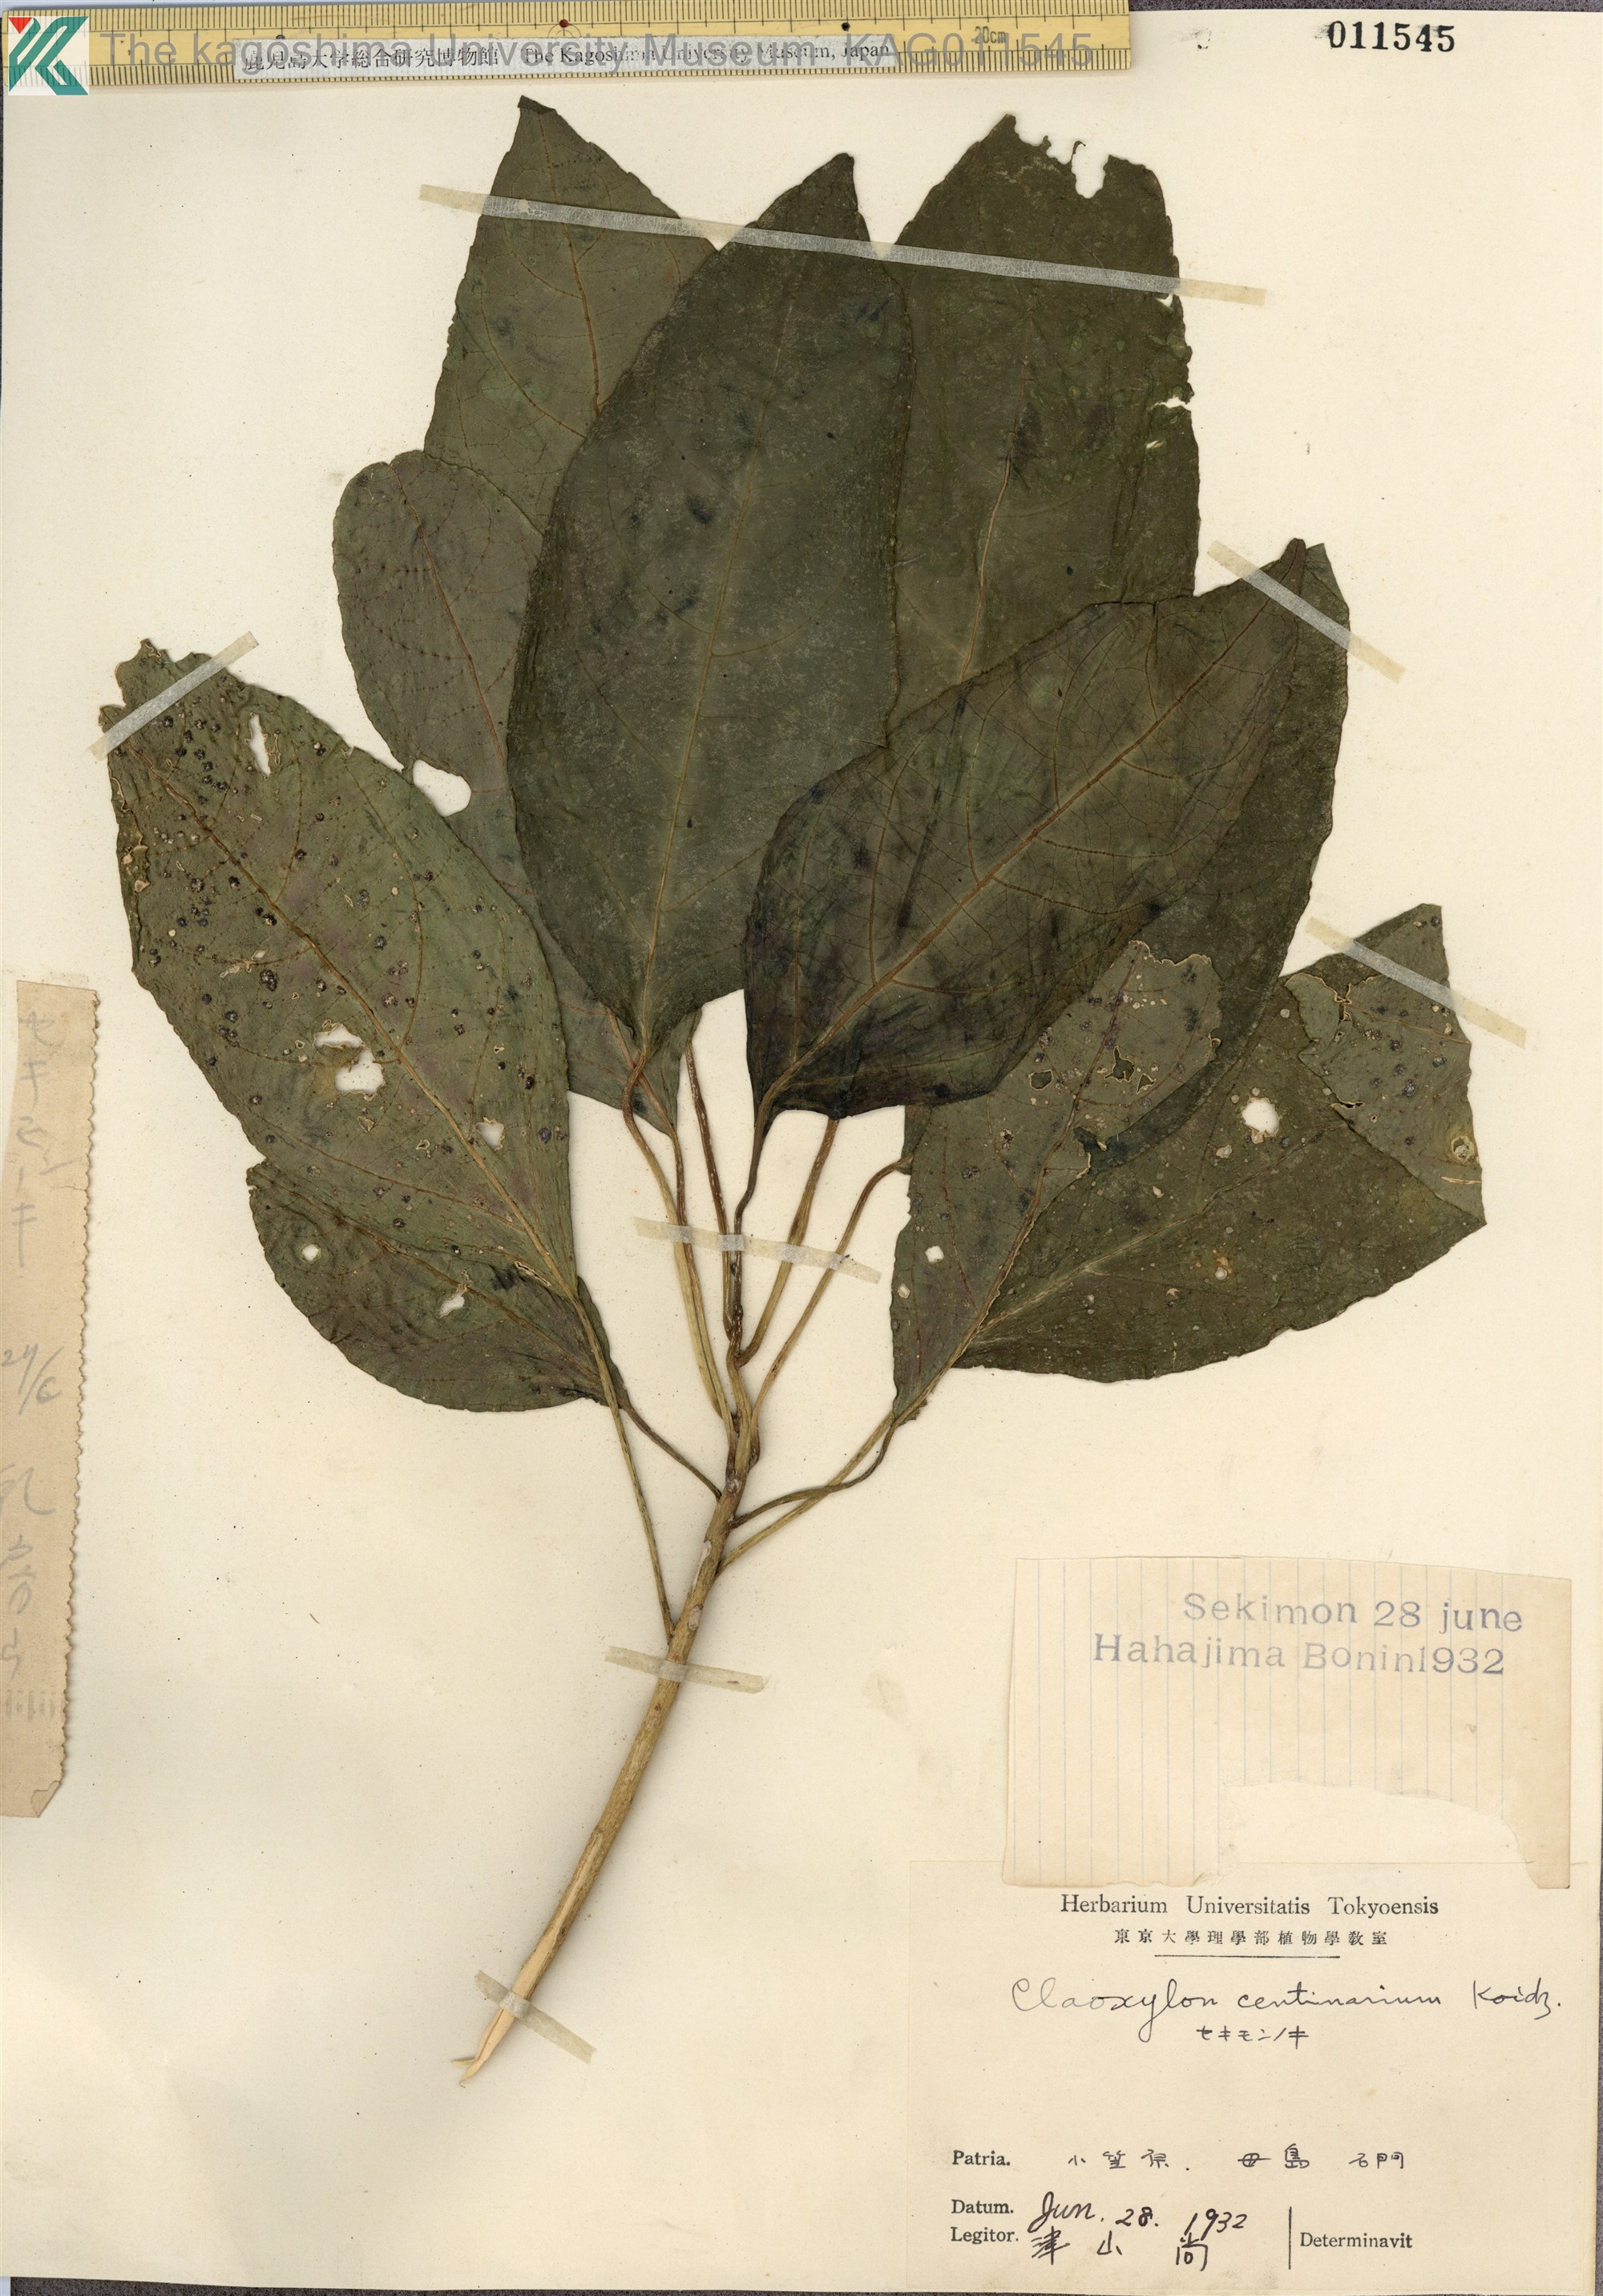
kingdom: Plantae
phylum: Tracheophyta
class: Magnoliopsida
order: Malpighiales
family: Euphorbiaceae
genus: Claoxylon
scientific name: Claoxylon centenarium
